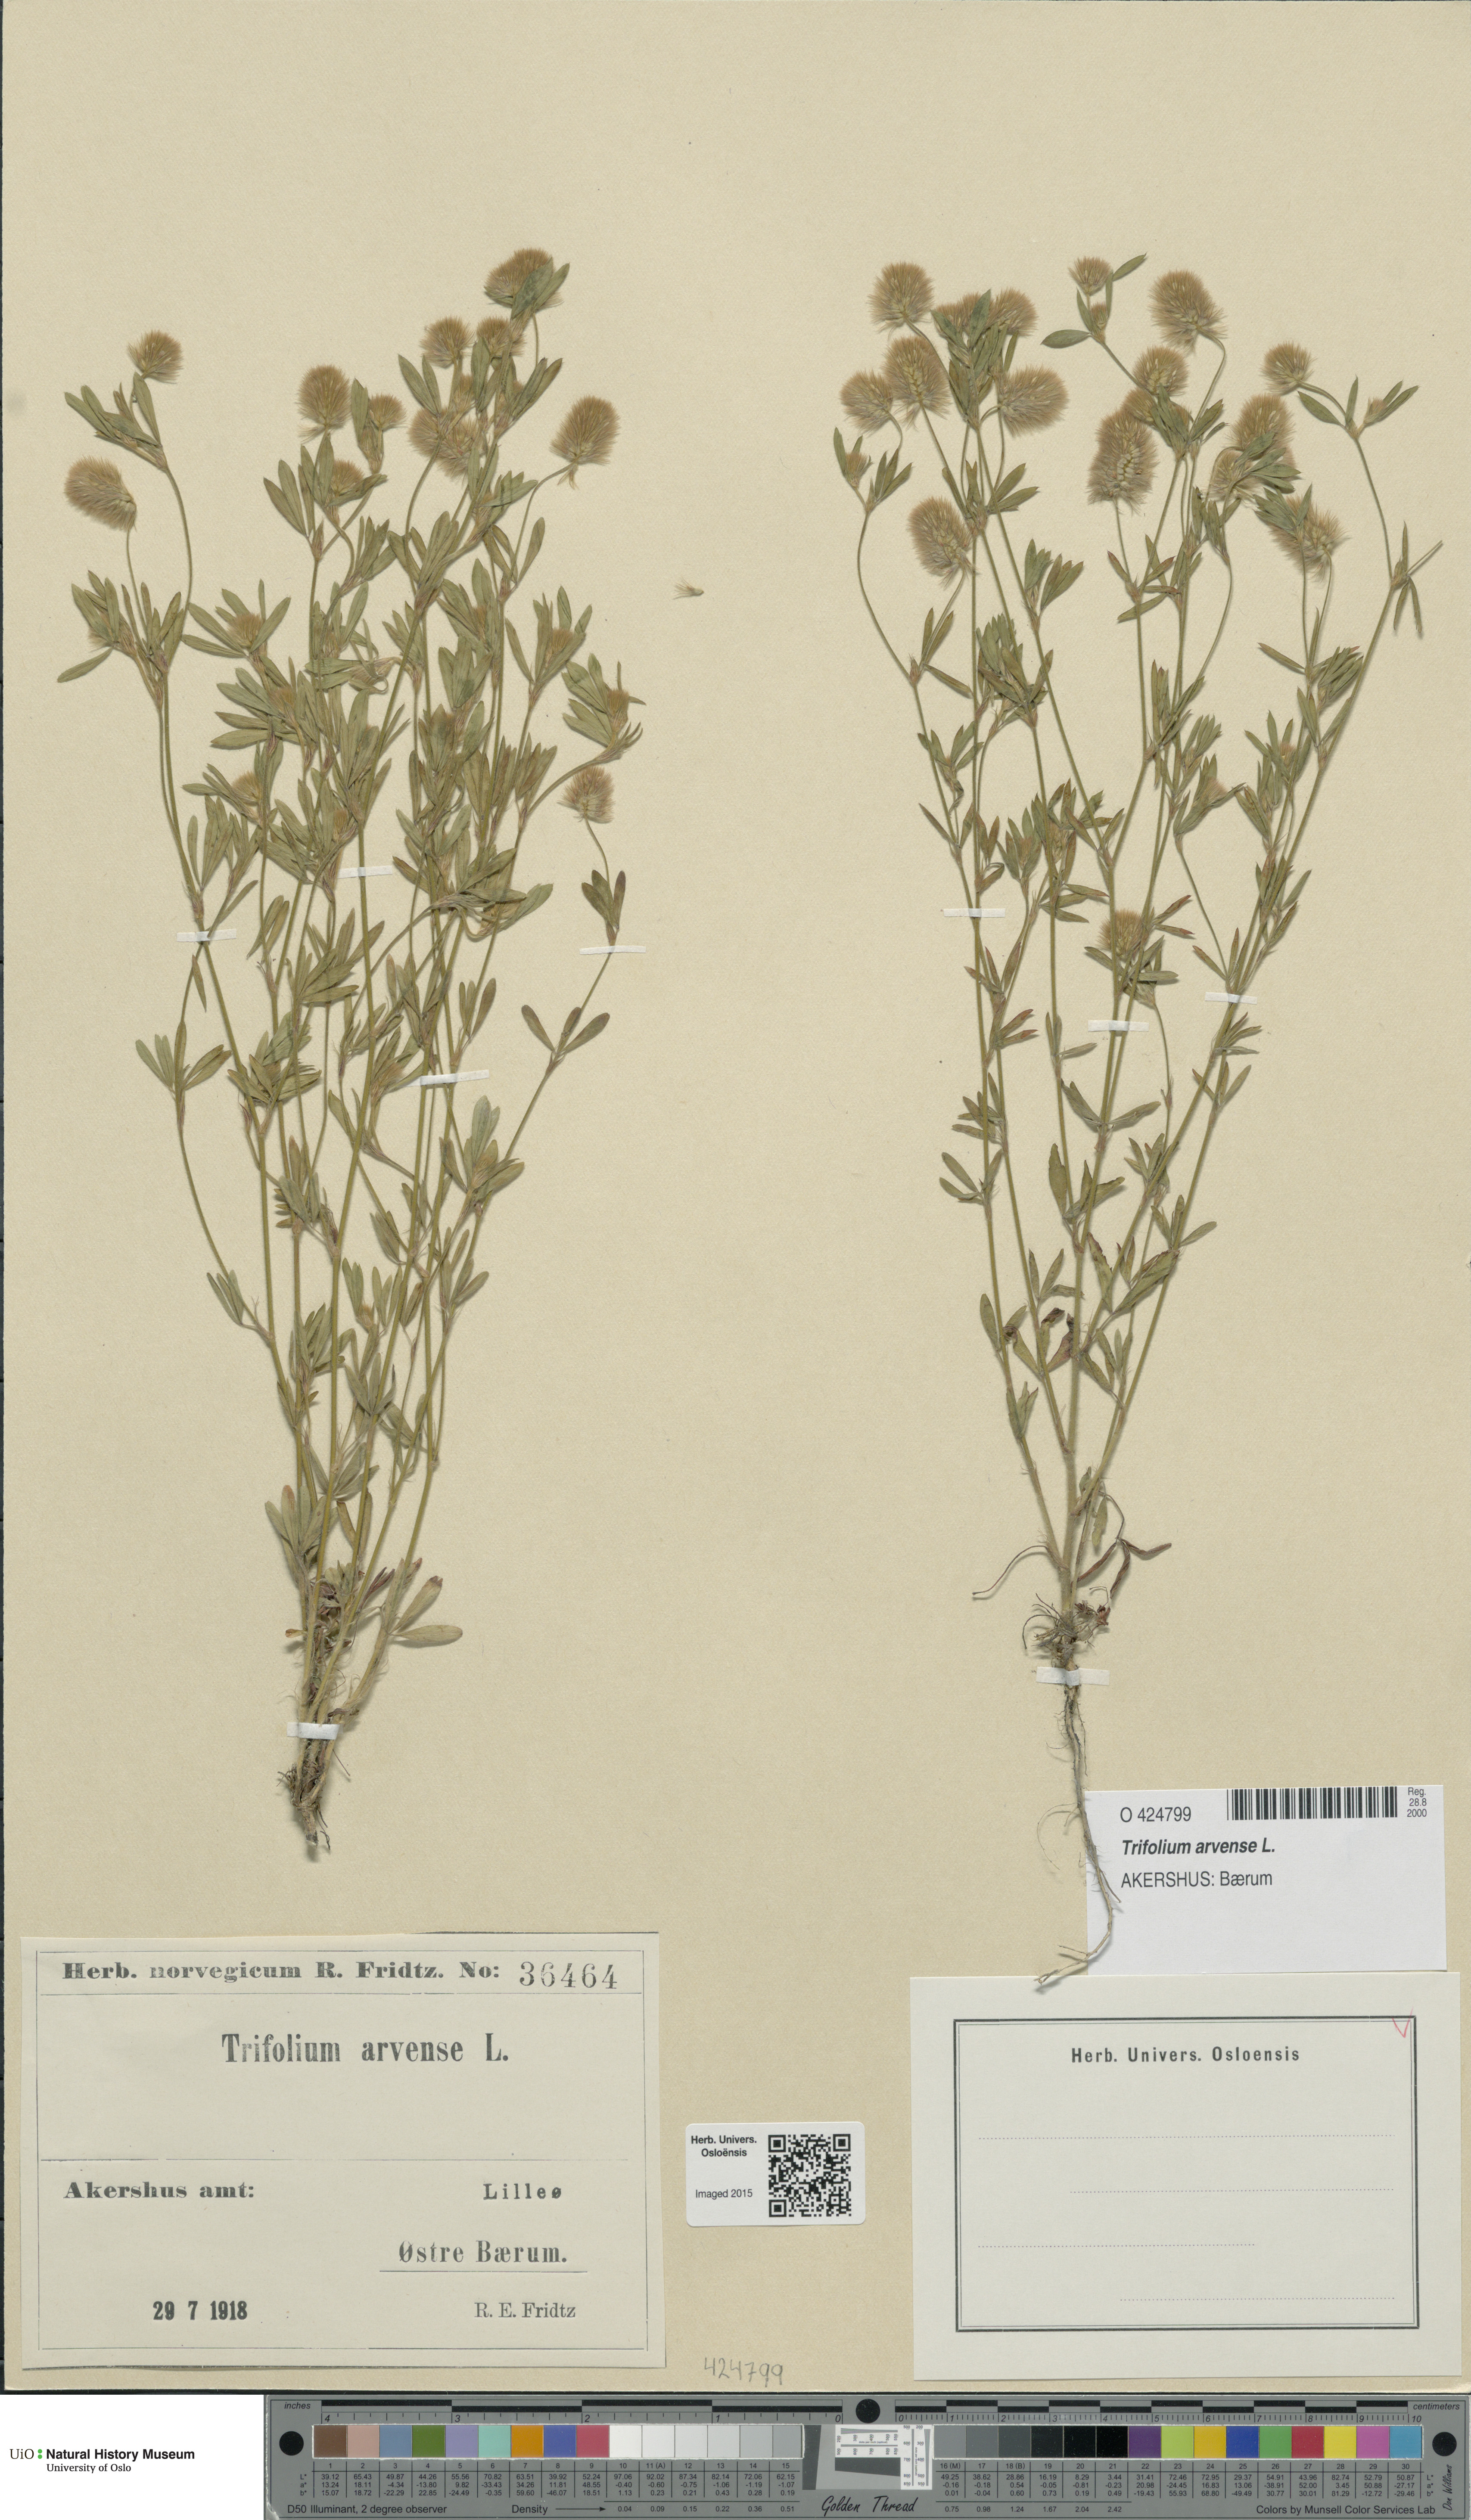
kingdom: Plantae
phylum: Tracheophyta
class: Magnoliopsida
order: Fabales
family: Fabaceae
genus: Trifolium
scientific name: Trifolium arvense
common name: Hare's-foot clover
